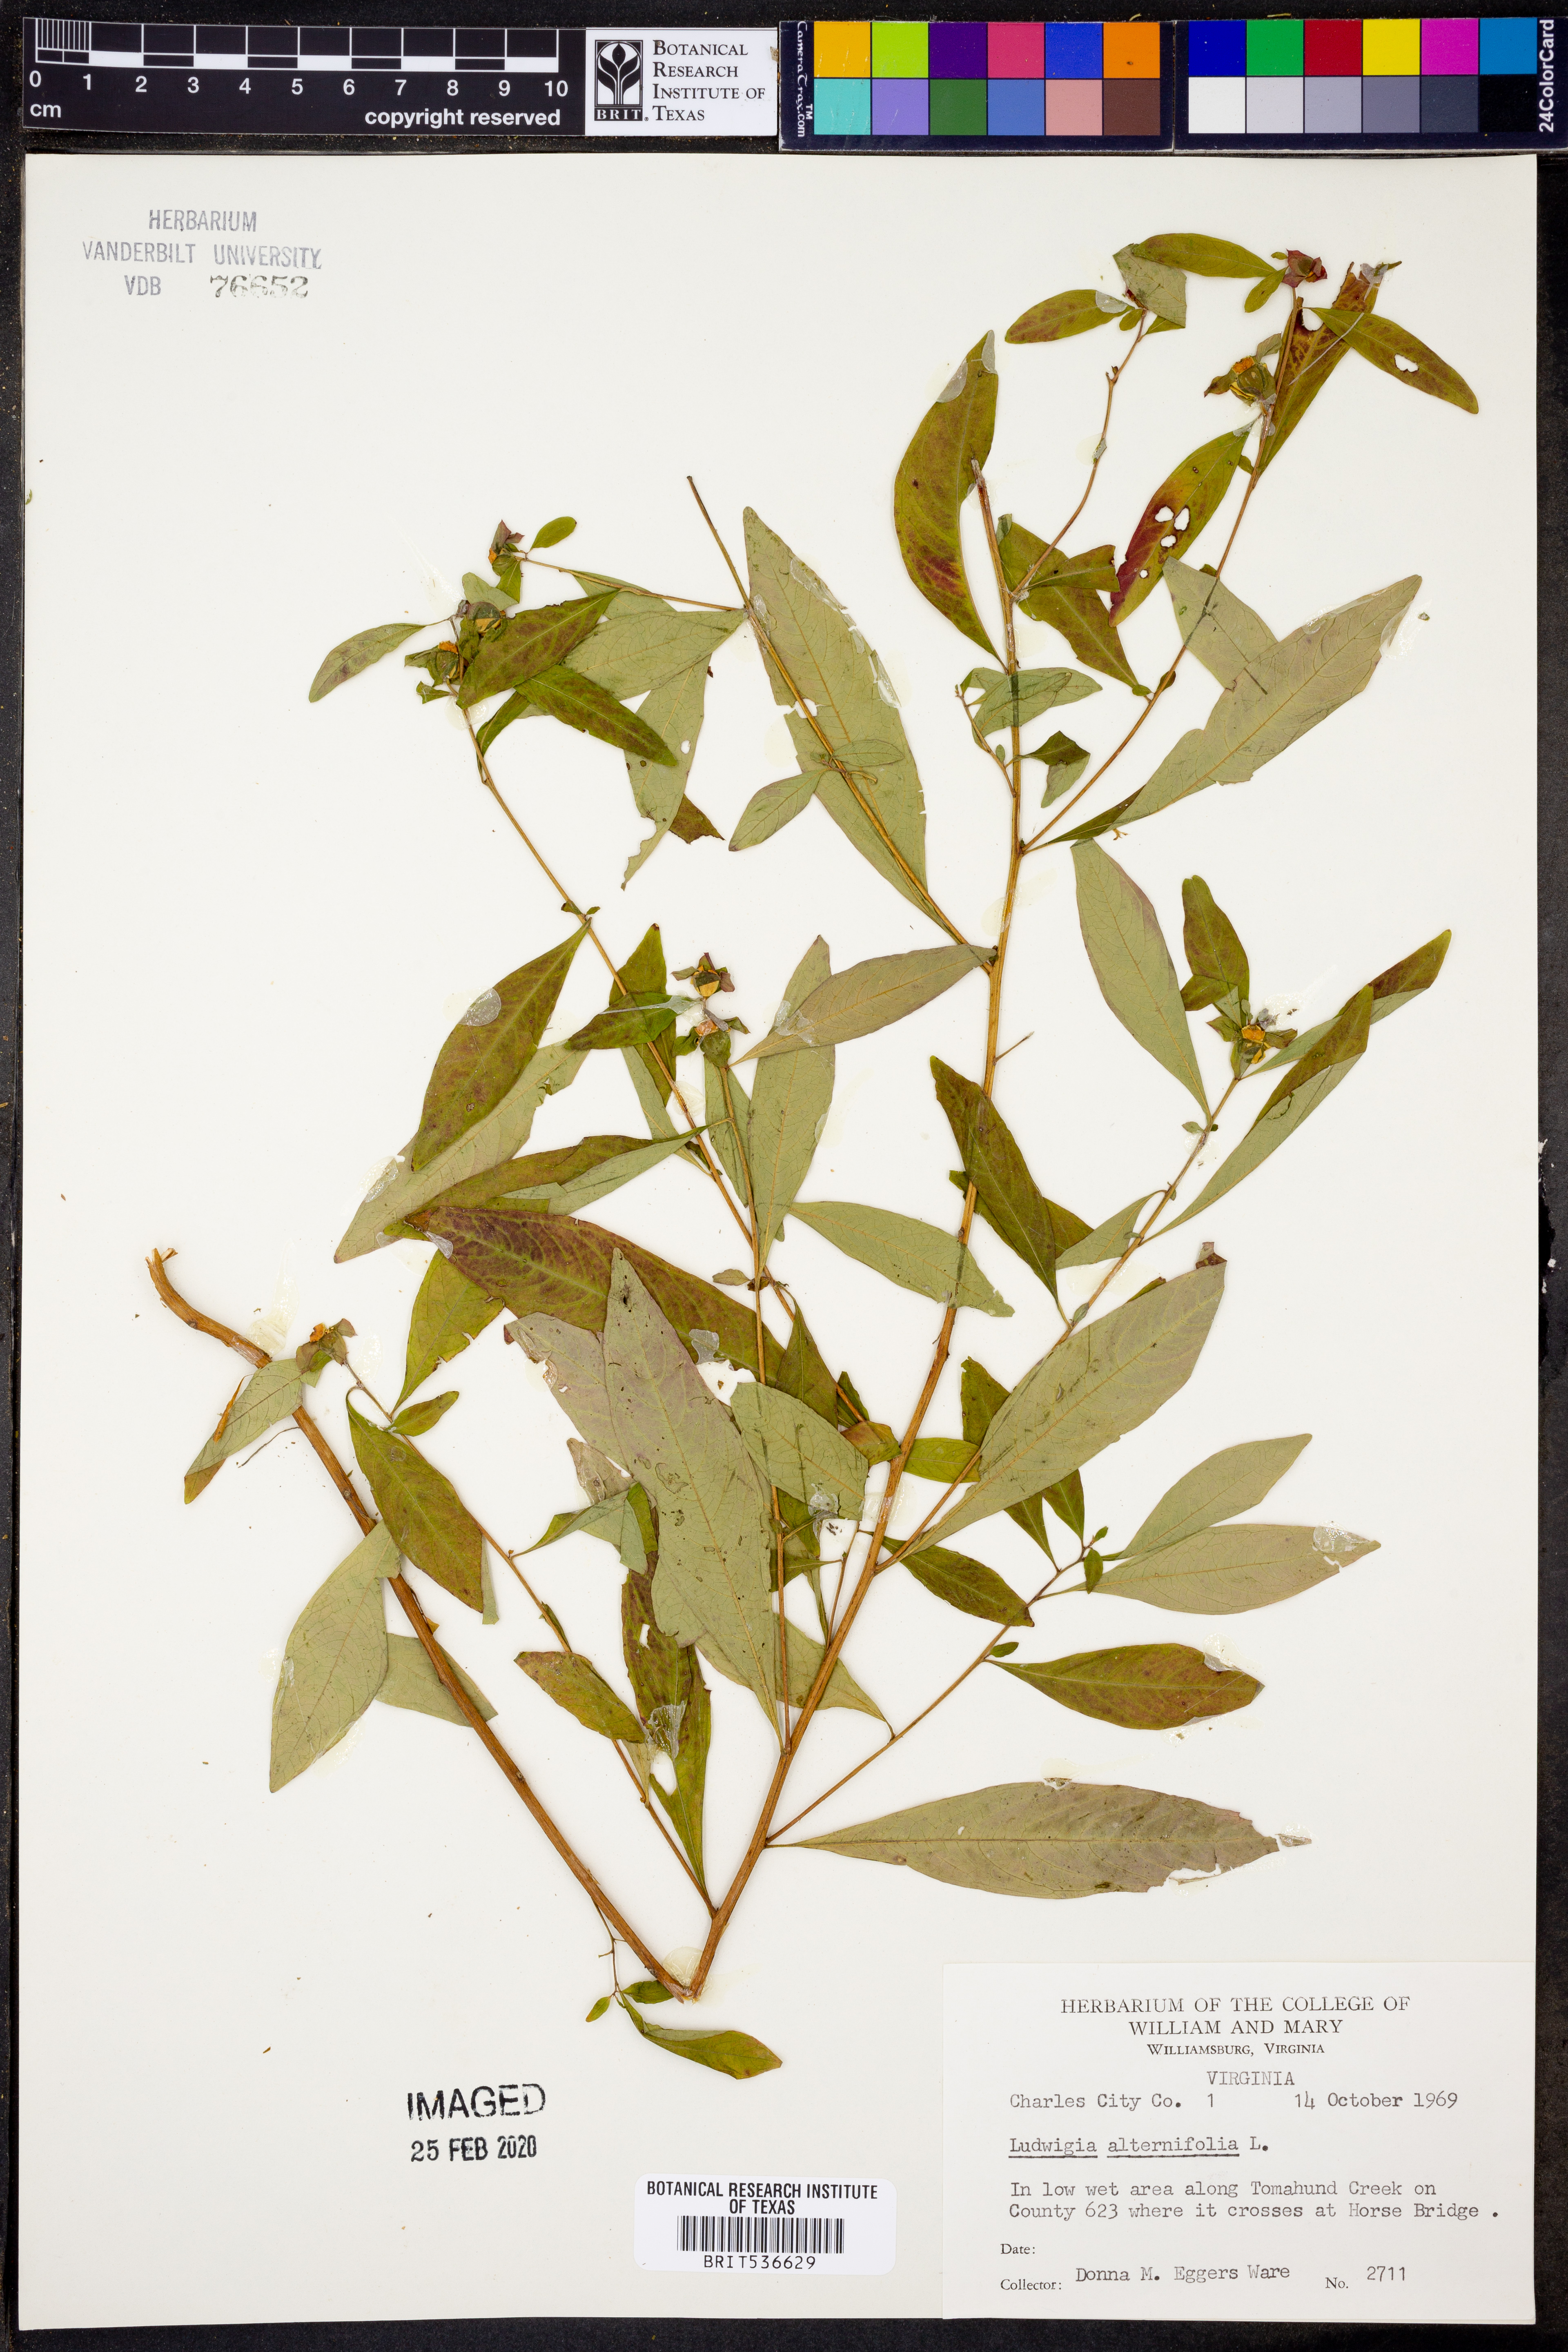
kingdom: Plantae
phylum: Tracheophyta
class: Magnoliopsida
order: Myrtales
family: Onagraceae
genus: Ludwigia
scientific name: Ludwigia alternifolia
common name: Rattlebox
